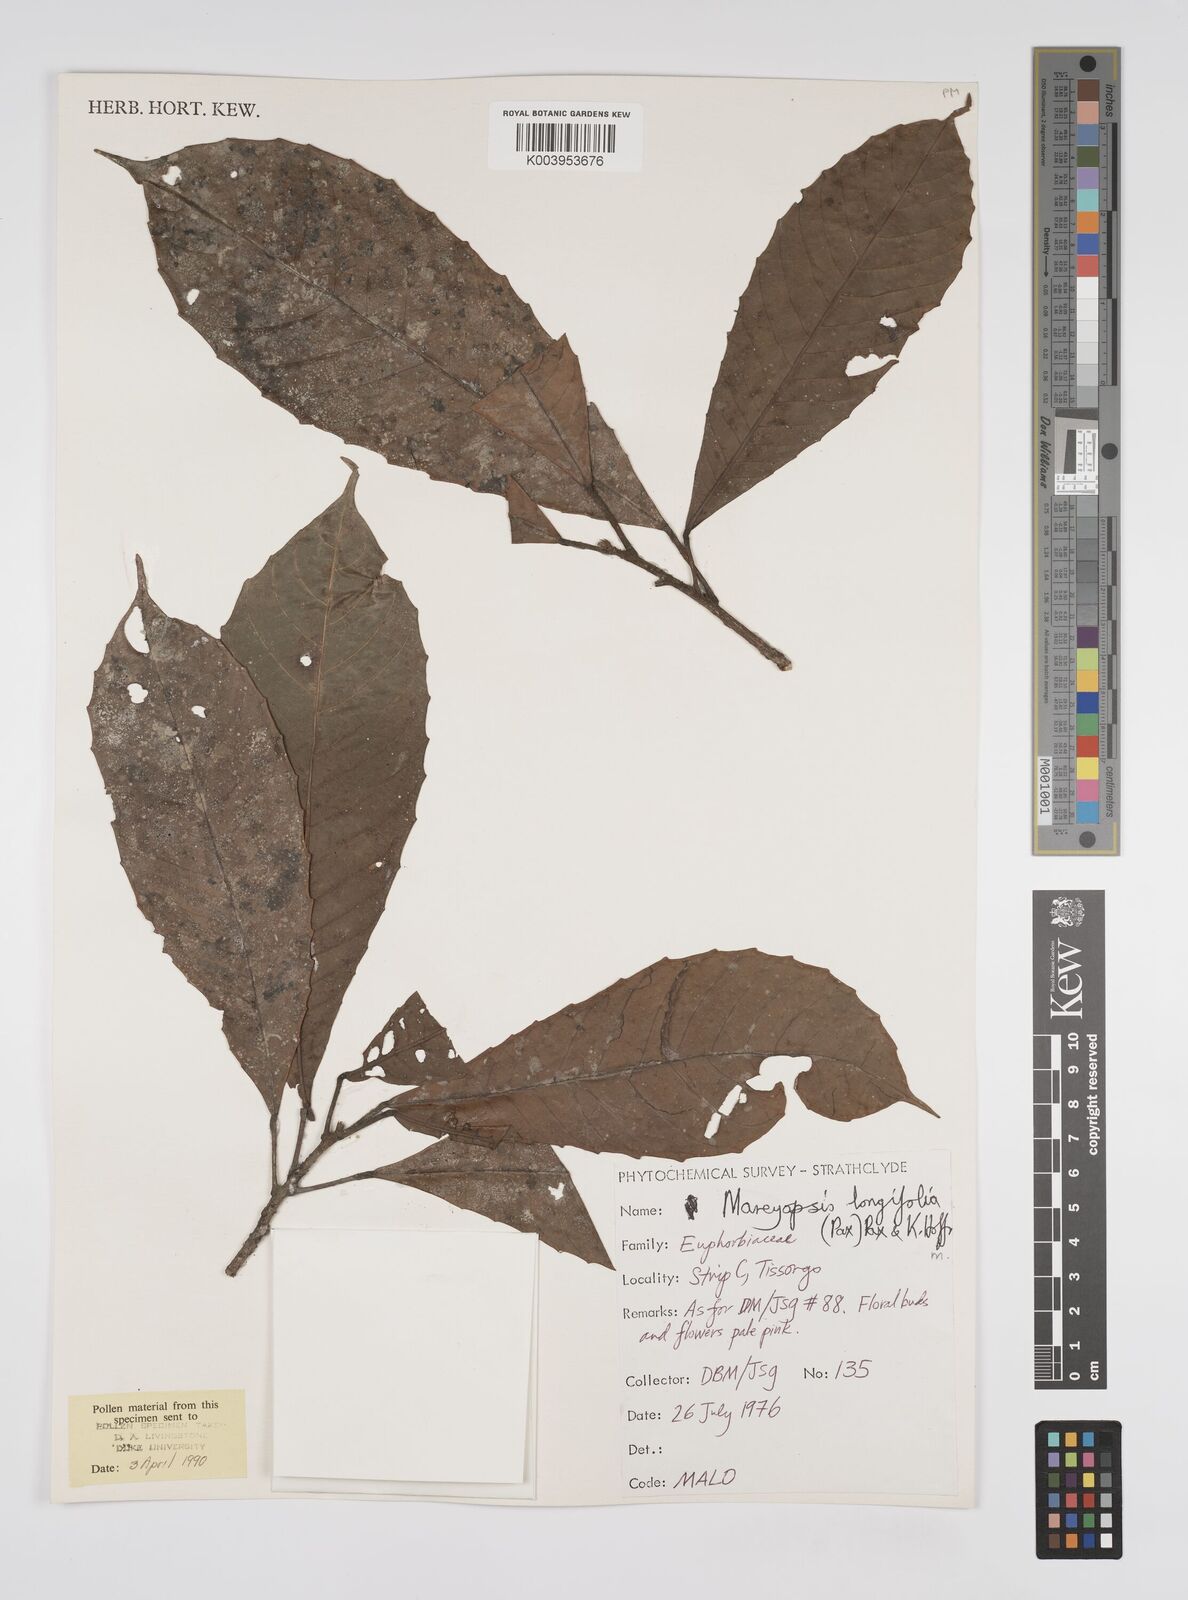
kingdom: Plantae
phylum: Tracheophyta
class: Magnoliopsida
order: Malpighiales
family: Euphorbiaceae
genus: Mareyopsis
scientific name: Mareyopsis longifolia
